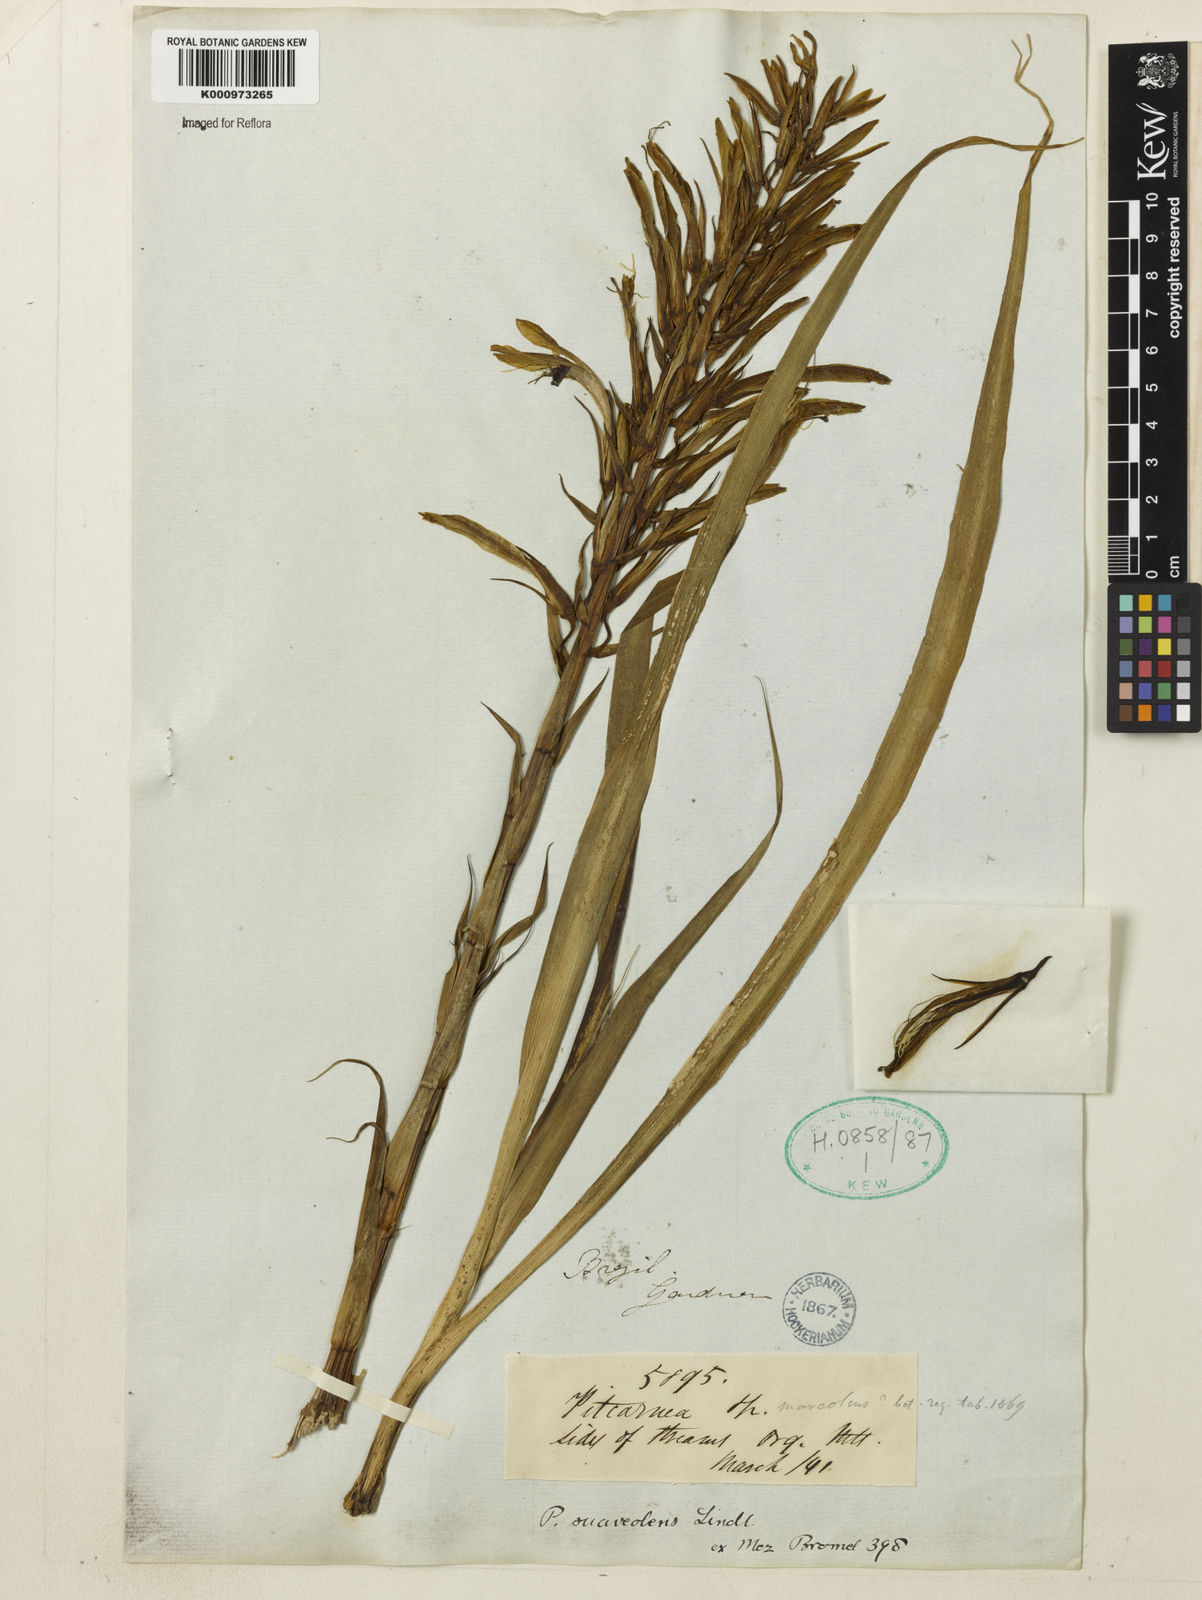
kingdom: Plantae
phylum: Tracheophyta
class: Liliopsida
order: Poales
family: Bromeliaceae
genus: Pitcairnia
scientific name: Pitcairnia suaveolens
